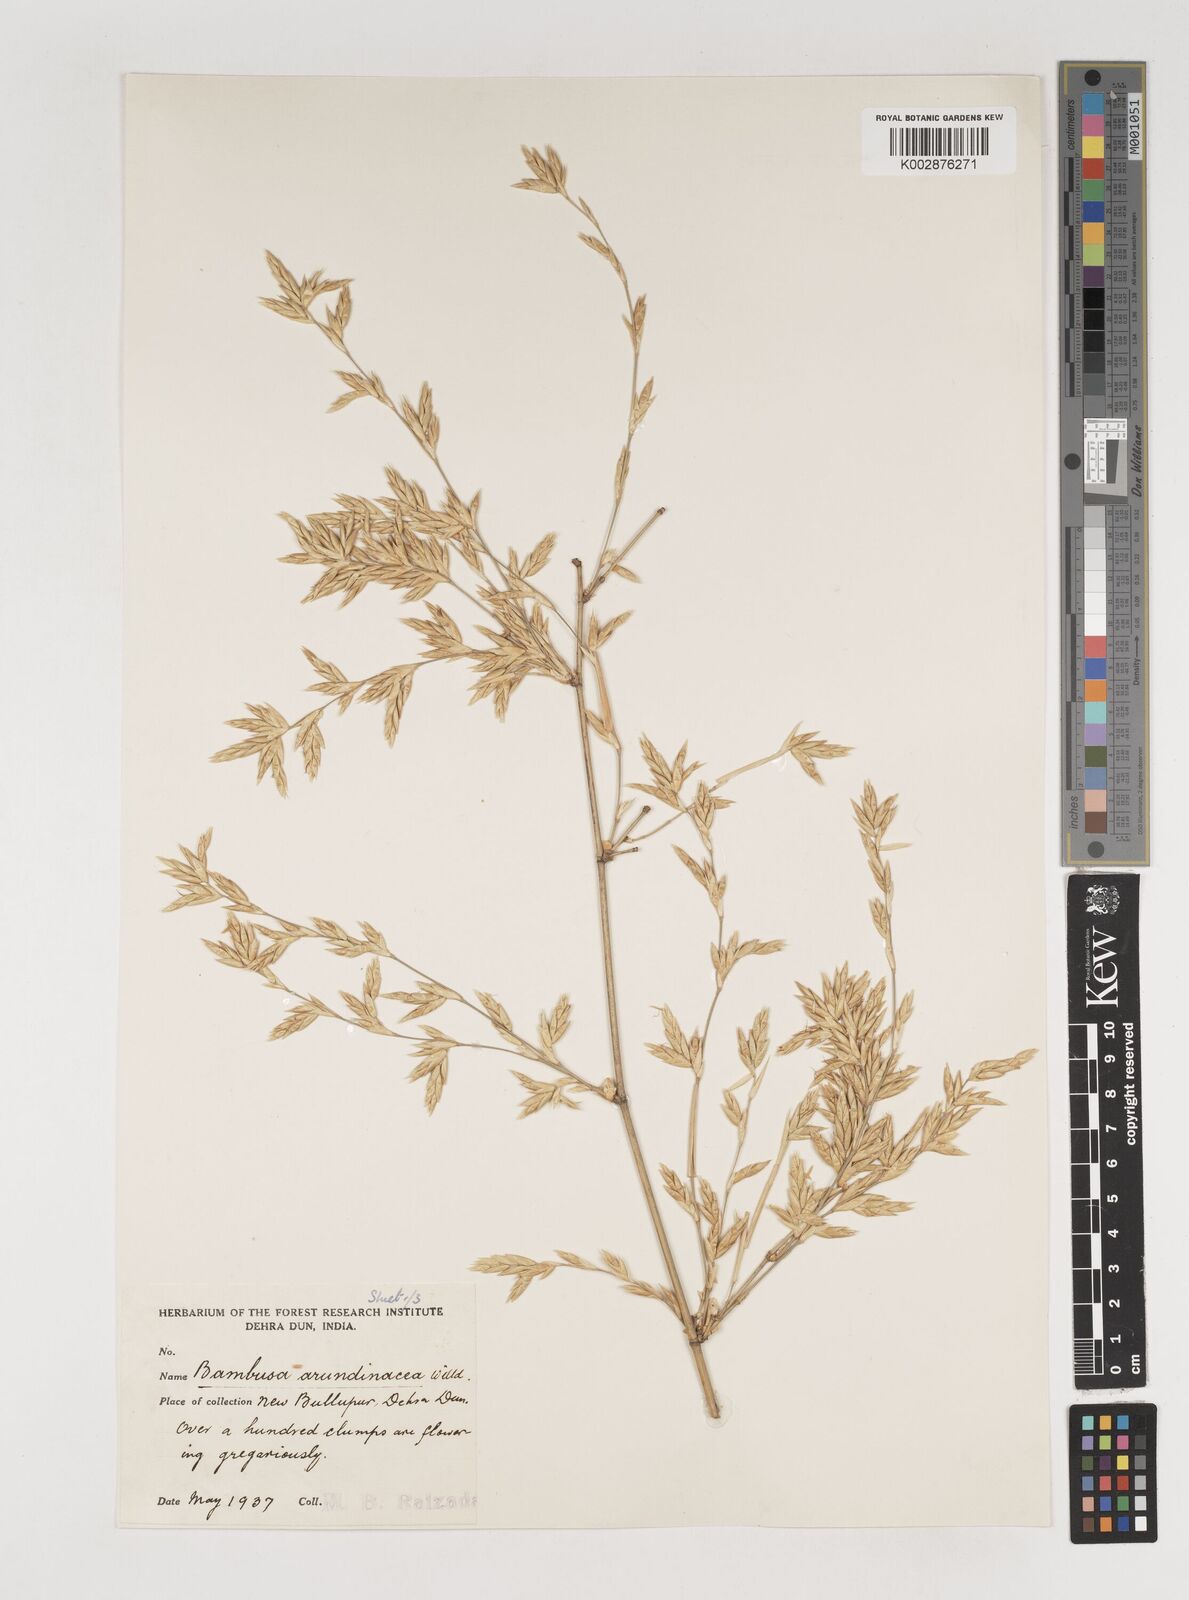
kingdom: Plantae
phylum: Tracheophyta
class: Liliopsida
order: Poales
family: Poaceae
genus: Bambusa
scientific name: Bambusa bambos
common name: Indian thorny bamboo
